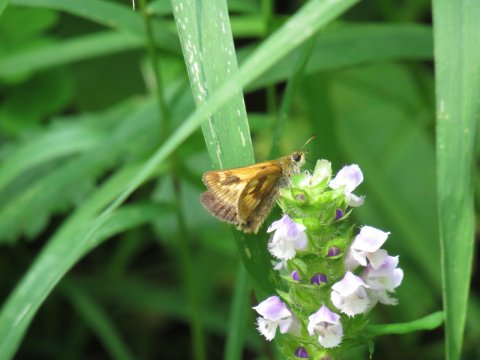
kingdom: Animalia
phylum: Arthropoda
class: Insecta
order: Lepidoptera
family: Hesperiidae
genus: Polites
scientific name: Polites
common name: Long Dash Skipper
